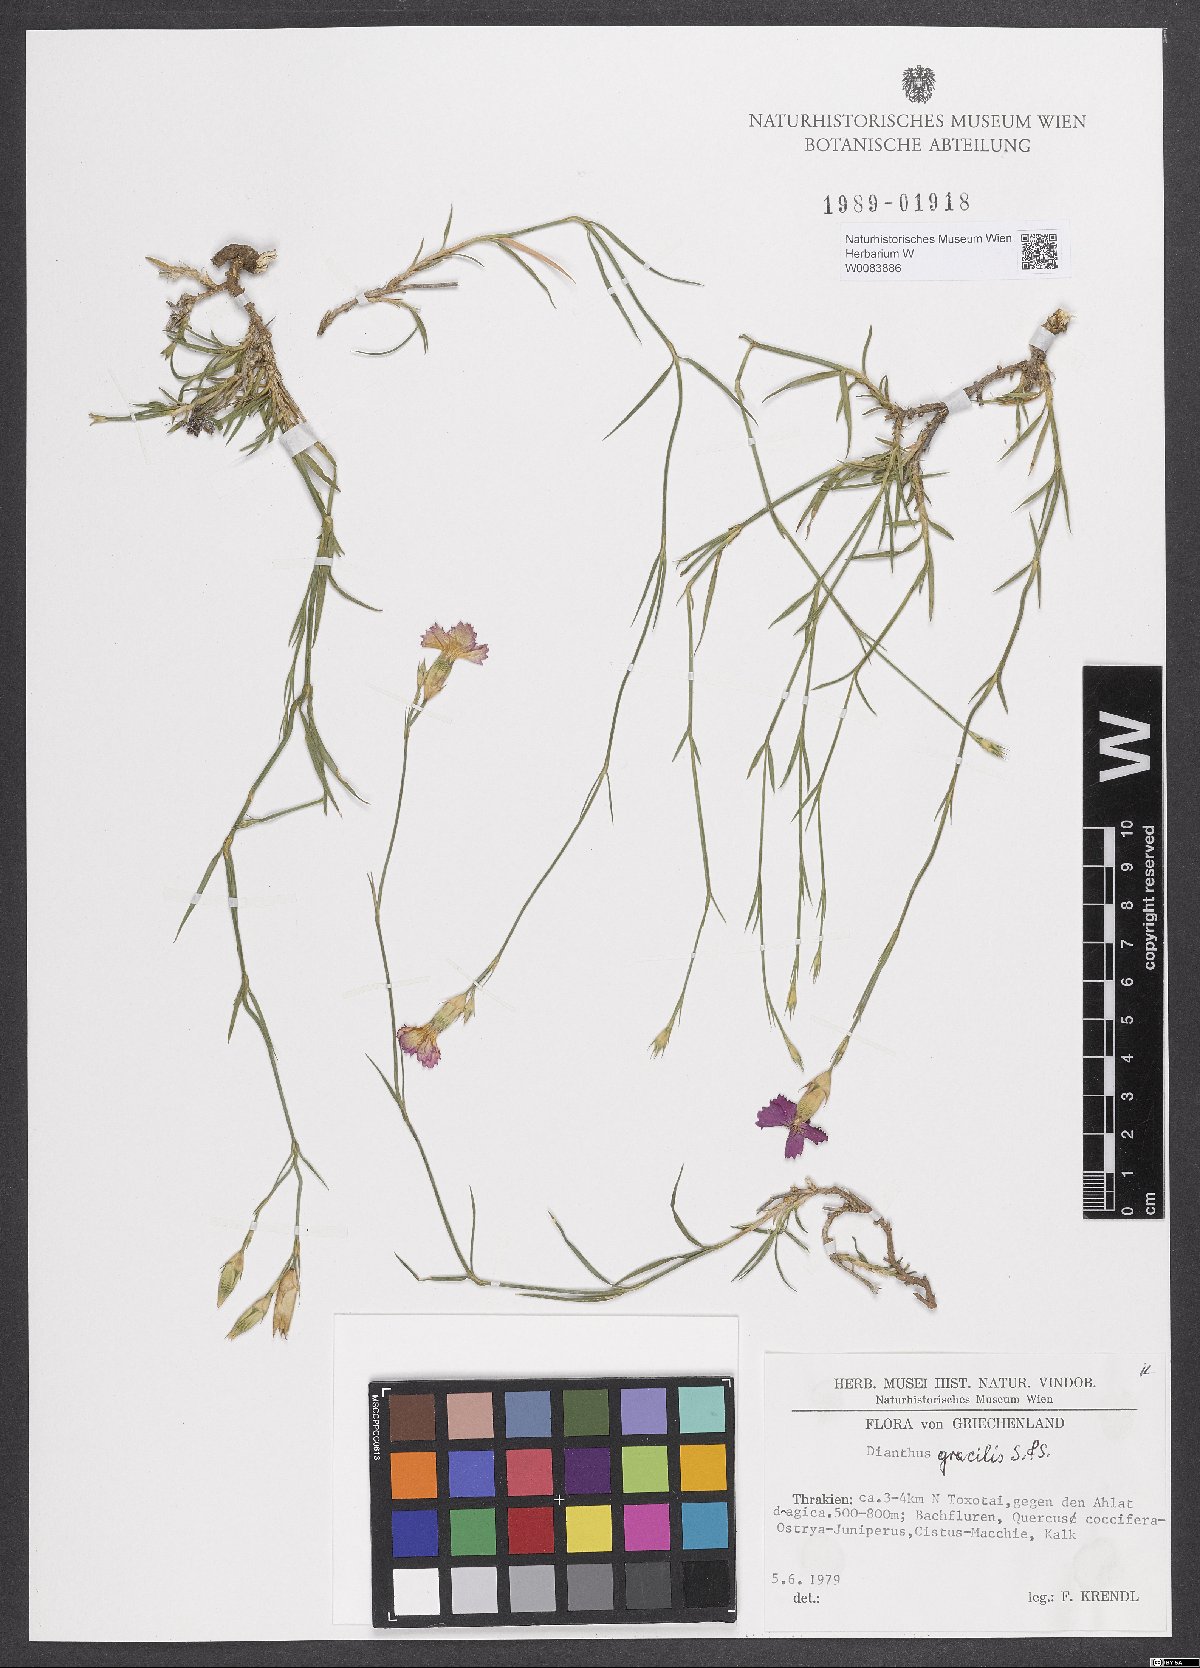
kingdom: Plantae
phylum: Tracheophyta
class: Magnoliopsida
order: Caryophyllales
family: Caryophyllaceae
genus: Dianthus
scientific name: Dianthus gracilis
